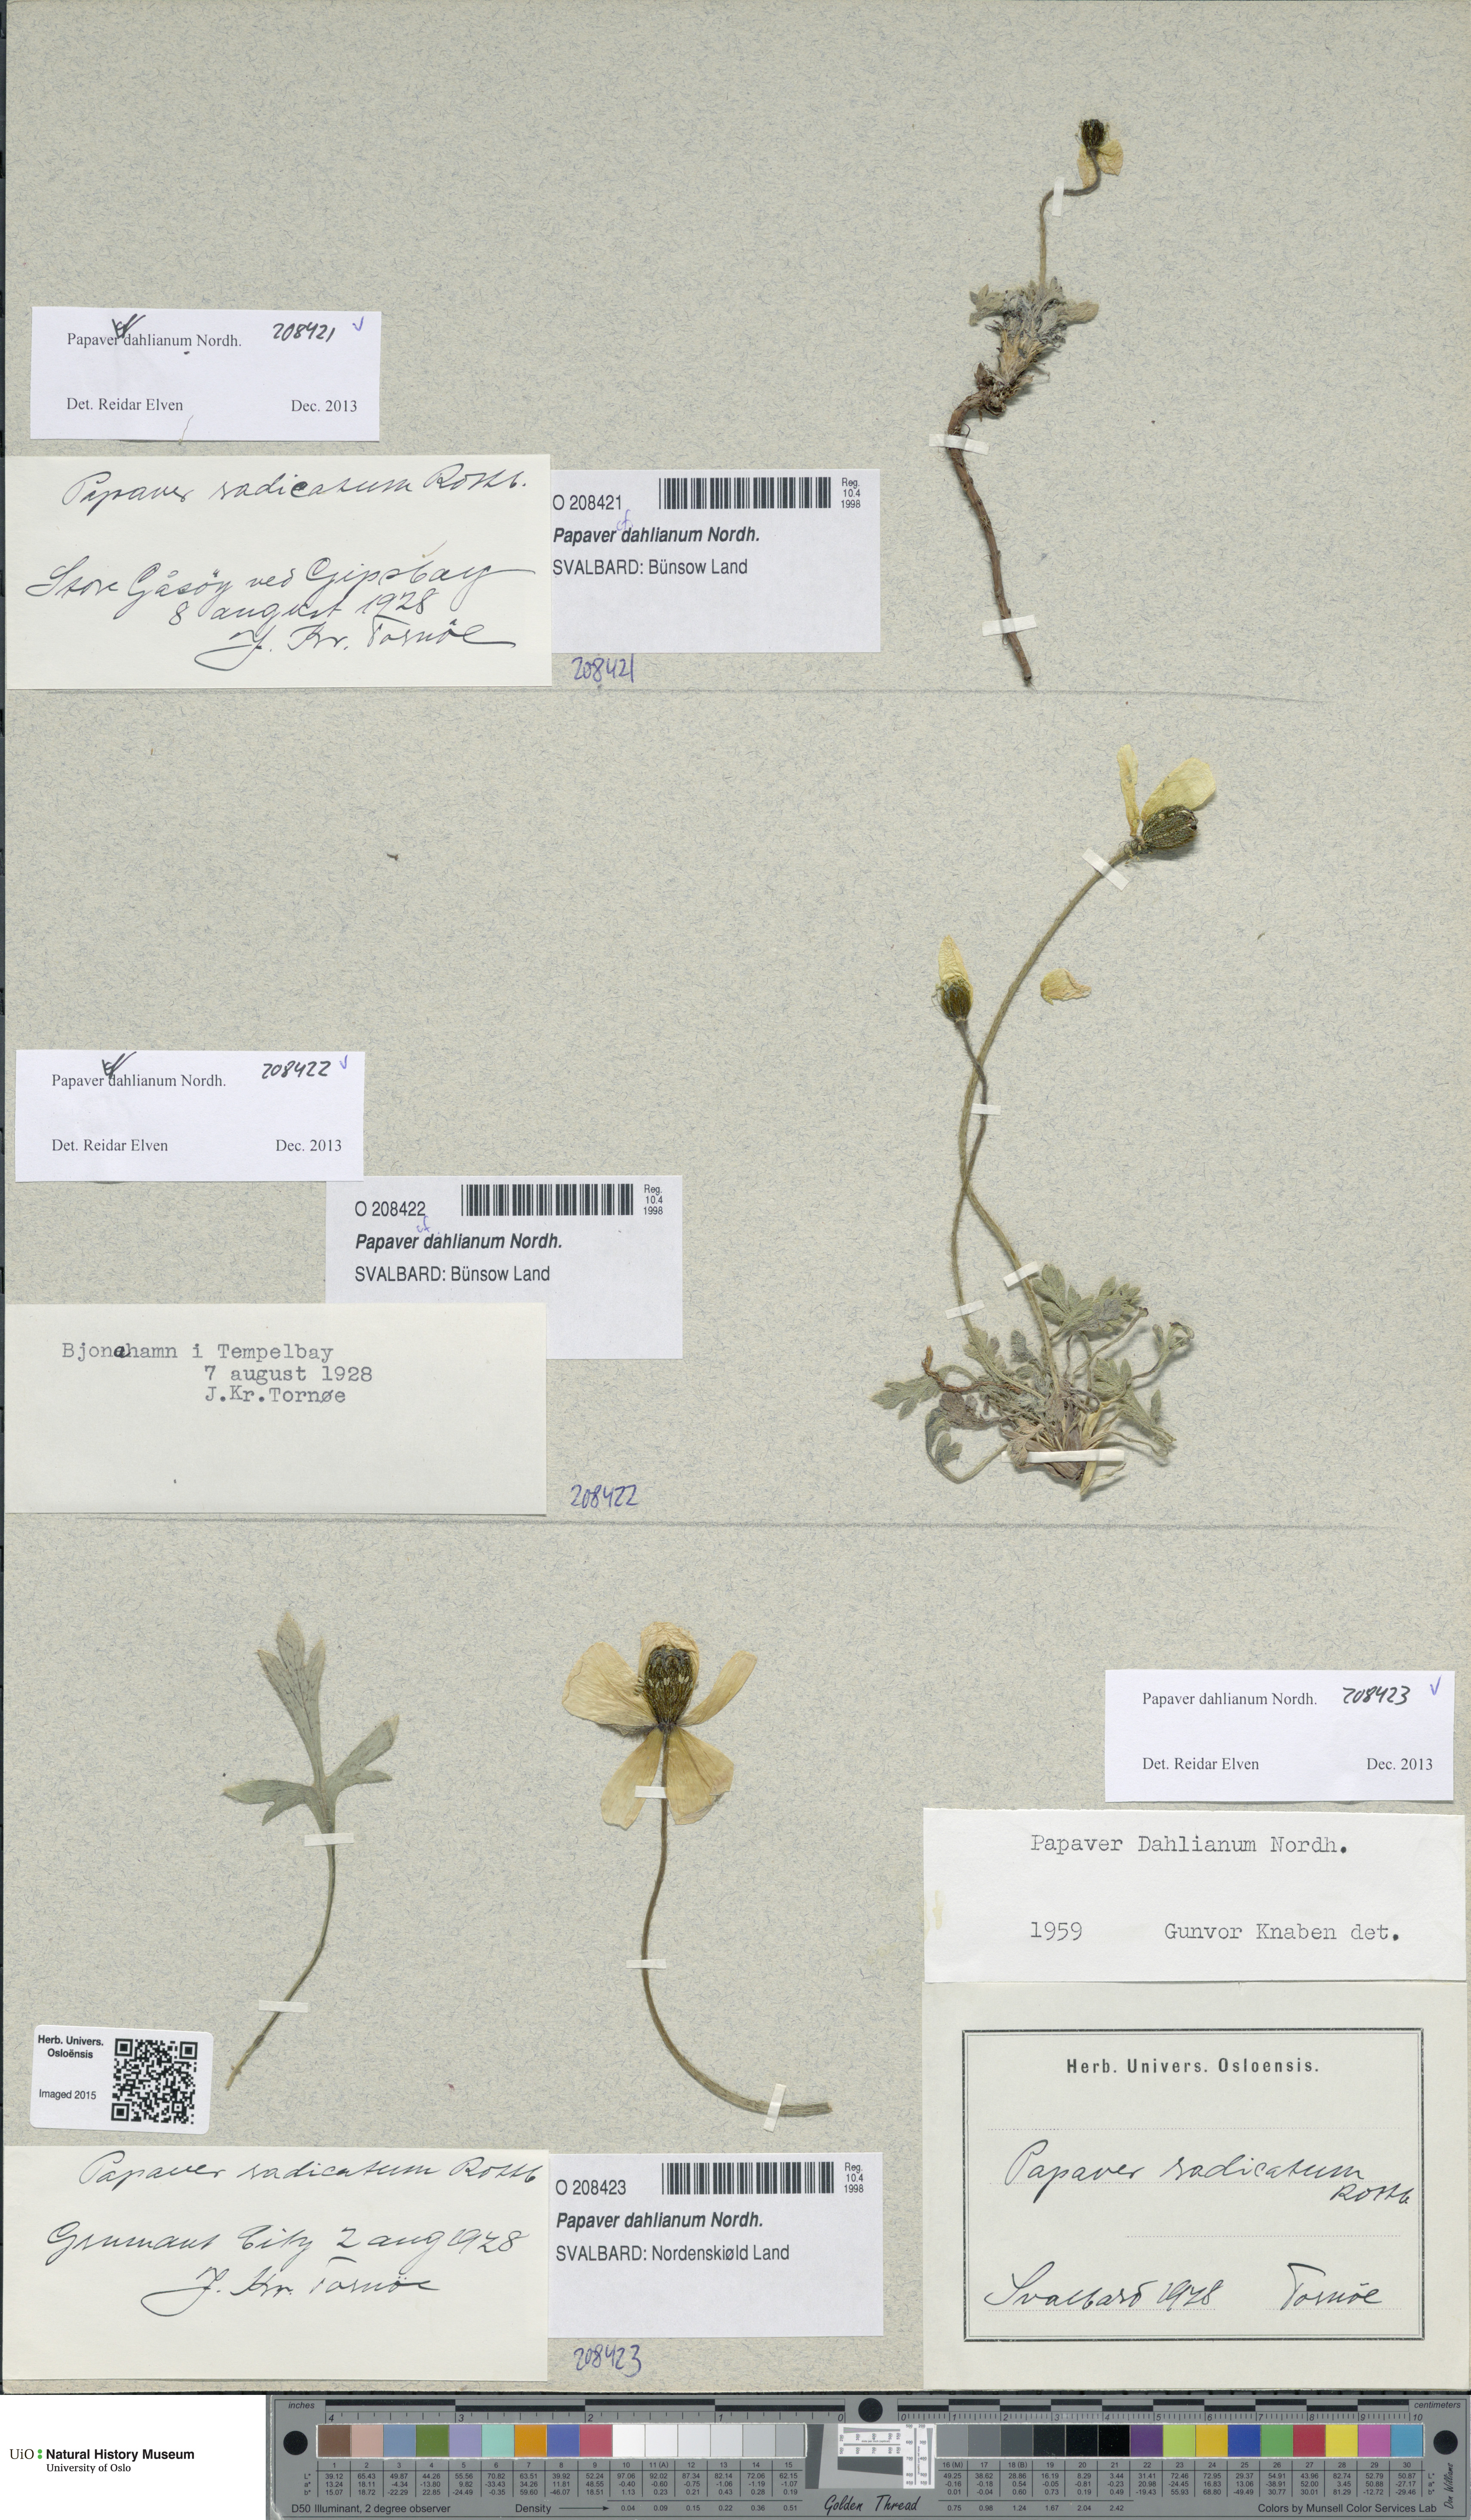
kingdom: Plantae
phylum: Tracheophyta
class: Magnoliopsida
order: Ranunculales
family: Papaveraceae
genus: Papaver
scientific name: Papaver radicatum
